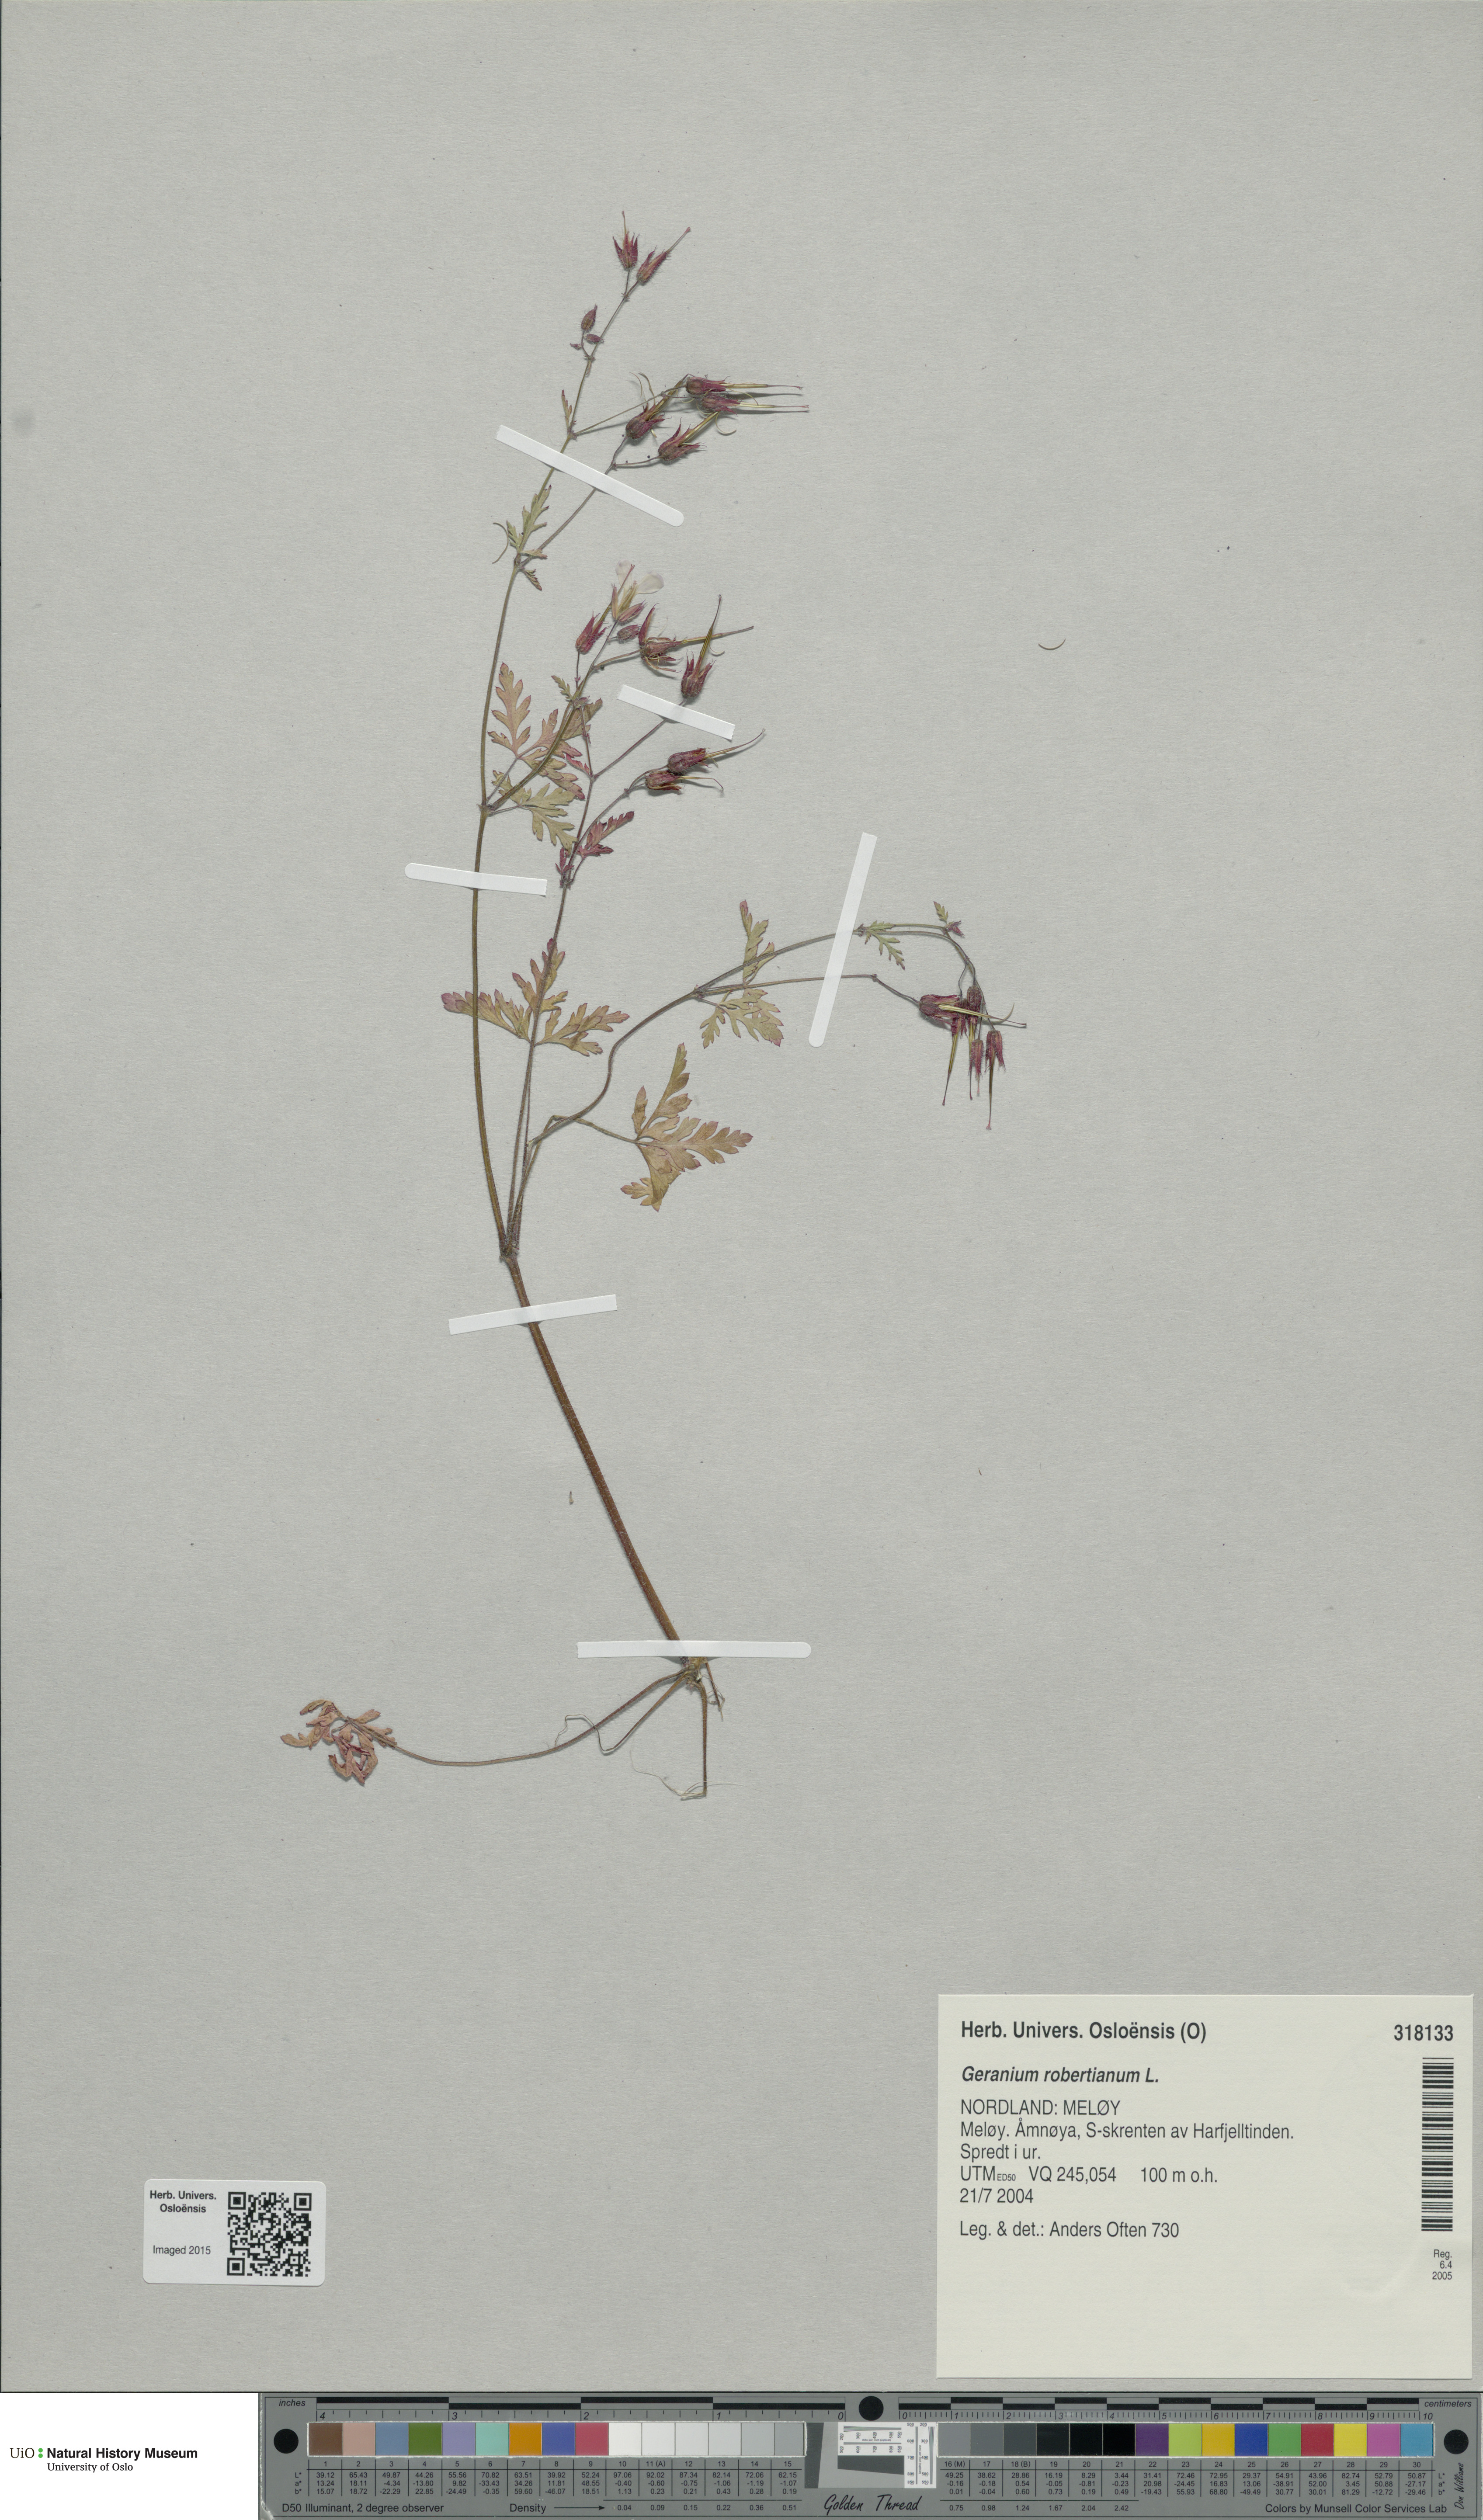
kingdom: Plantae
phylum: Tracheophyta
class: Magnoliopsida
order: Geraniales
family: Geraniaceae
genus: Geranium
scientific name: Geranium robertianum
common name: Herb-robert
